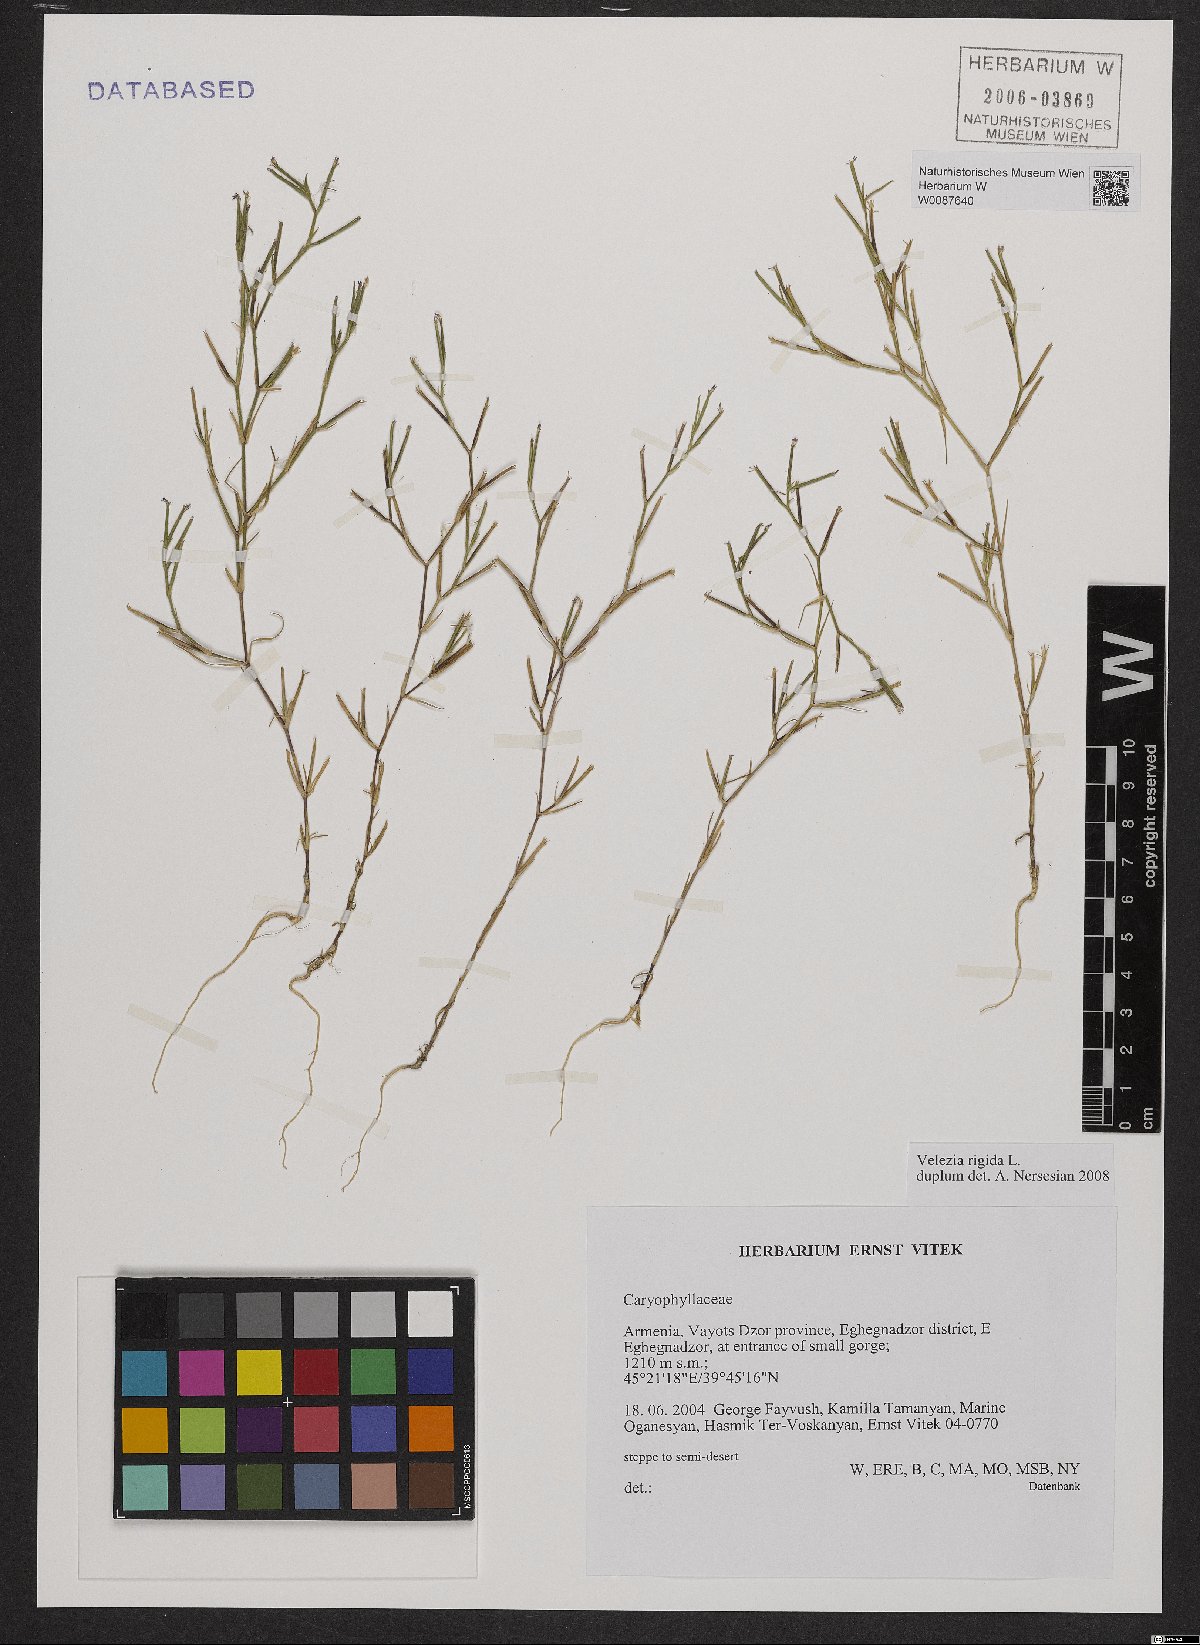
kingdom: Plantae
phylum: Tracheophyta
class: Magnoliopsida
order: Caryophyllales
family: Caryophyllaceae
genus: Dianthus
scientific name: Dianthus nudiflorus
